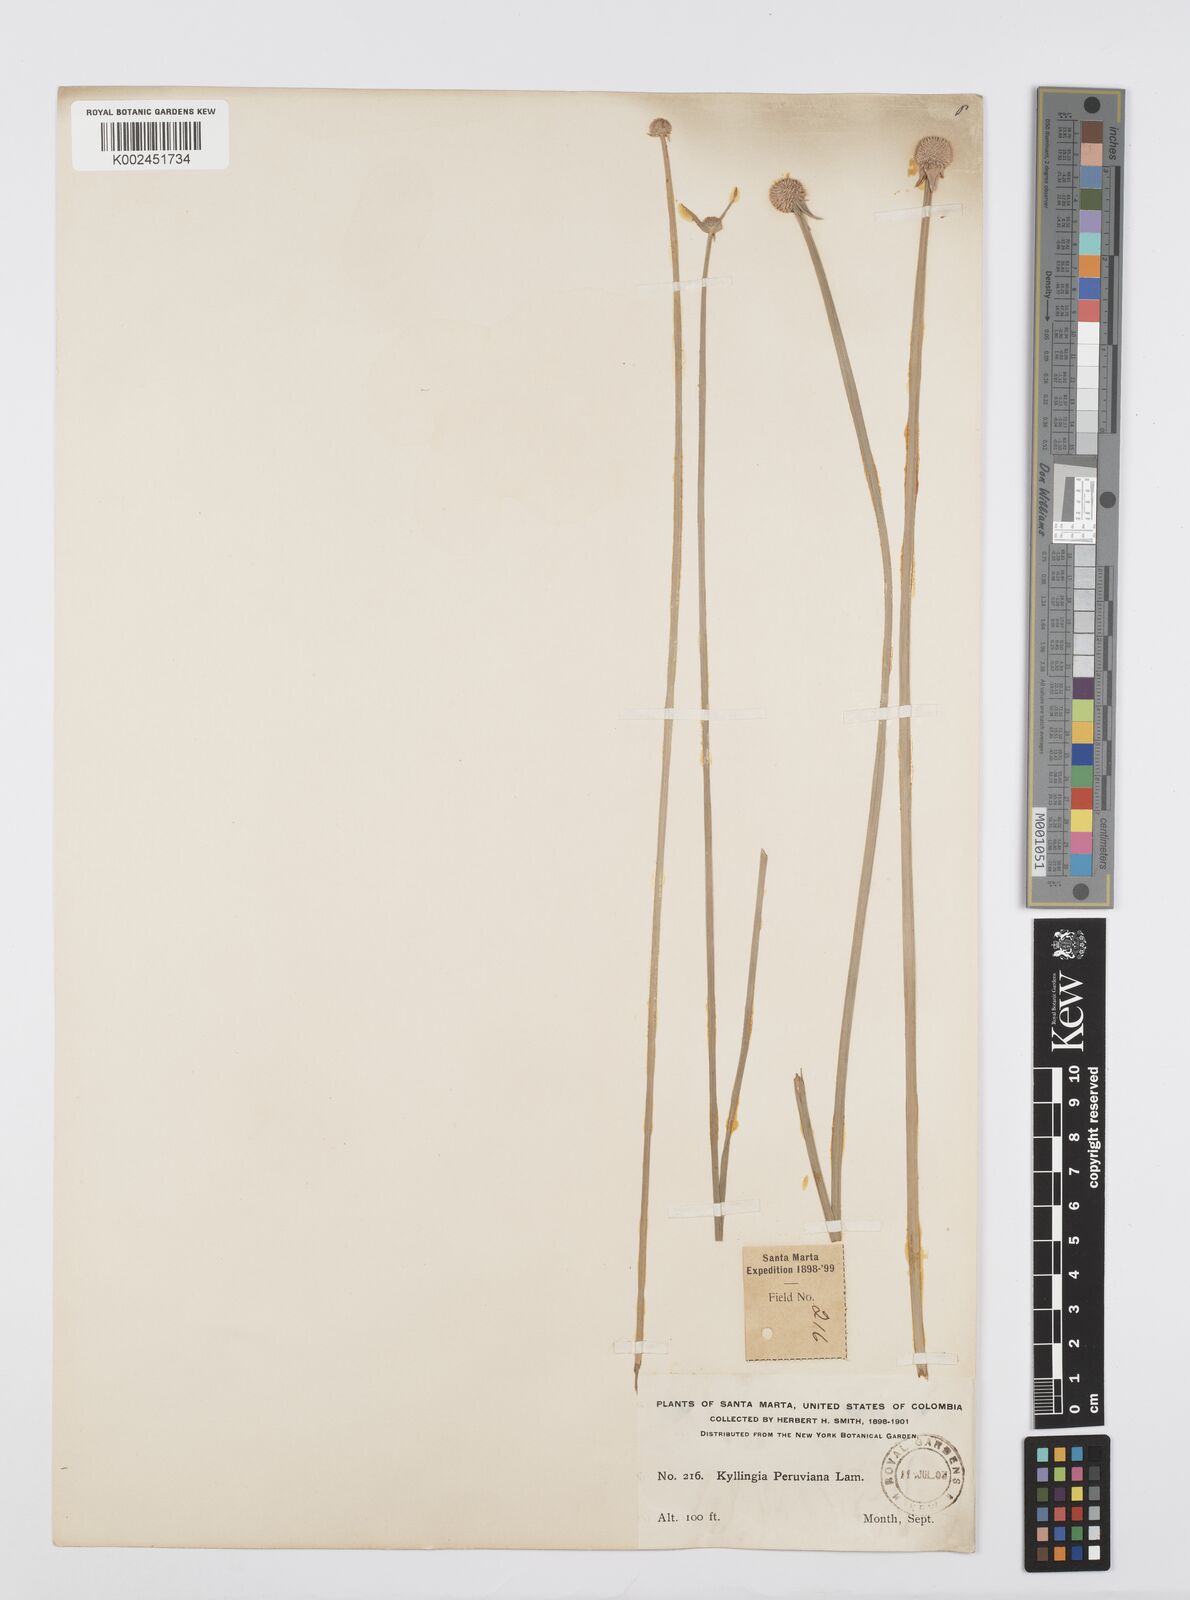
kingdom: Plantae
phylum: Tracheophyta
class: Liliopsida
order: Poales
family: Cyperaceae
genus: Cyperus
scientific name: Cyperus obtusatus
